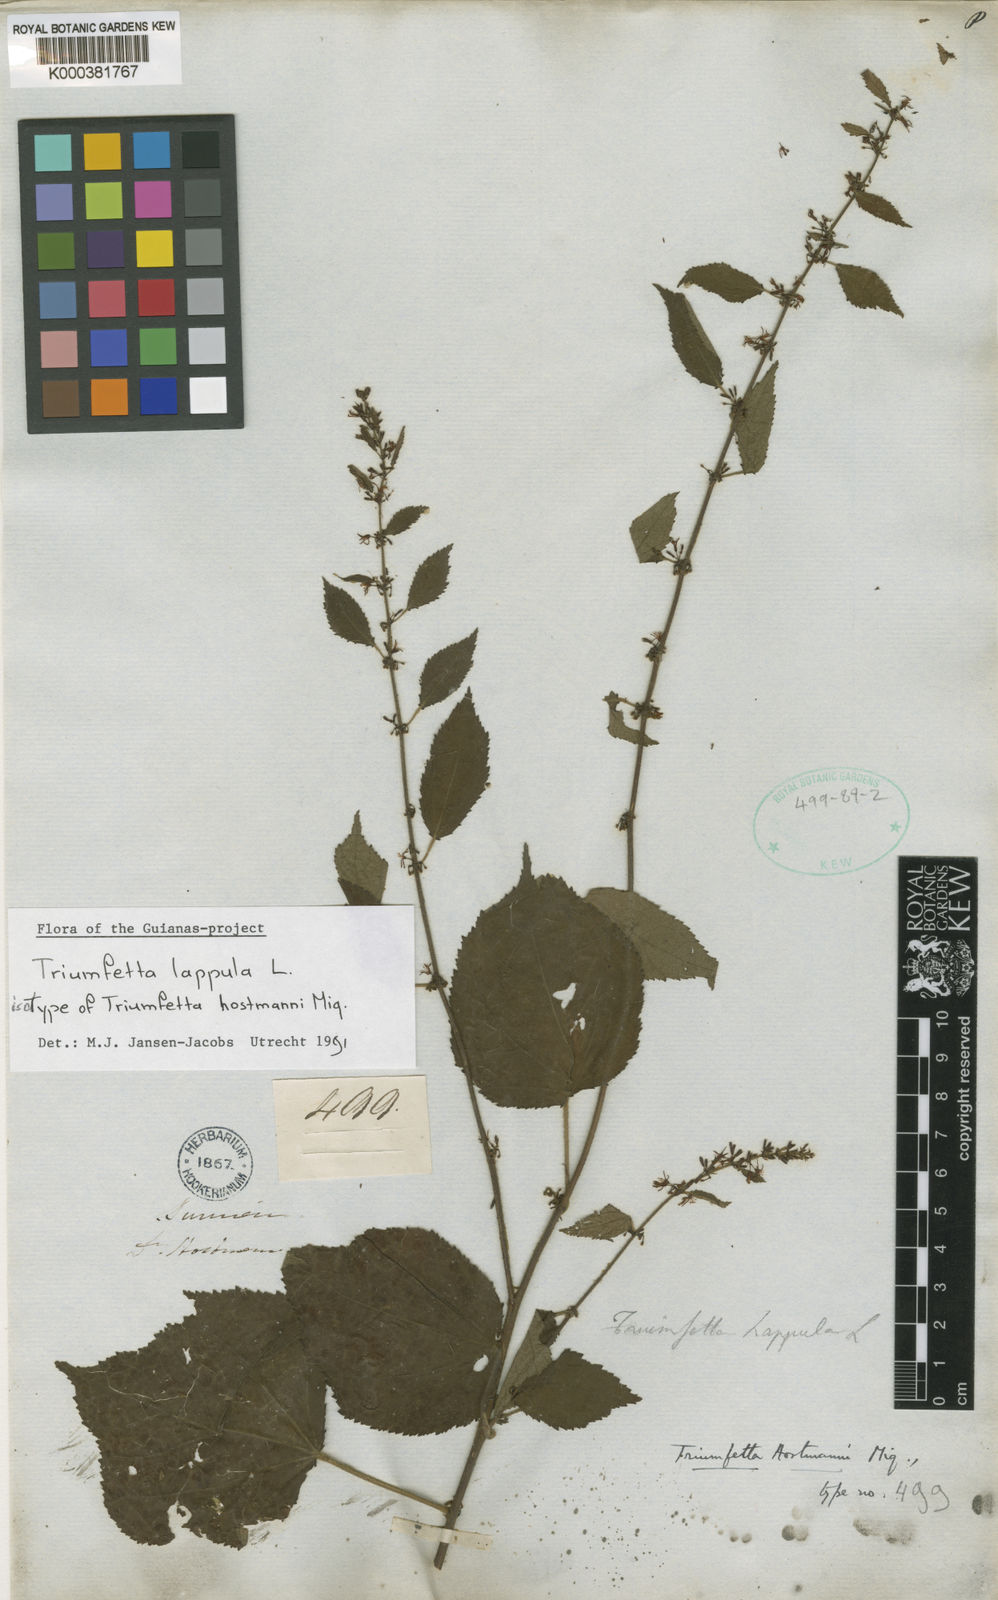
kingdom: Plantae
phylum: Tracheophyta
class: Magnoliopsida
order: Malvales
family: Malvaceae
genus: Triumfetta
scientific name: Triumfetta lappula
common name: Burbark
